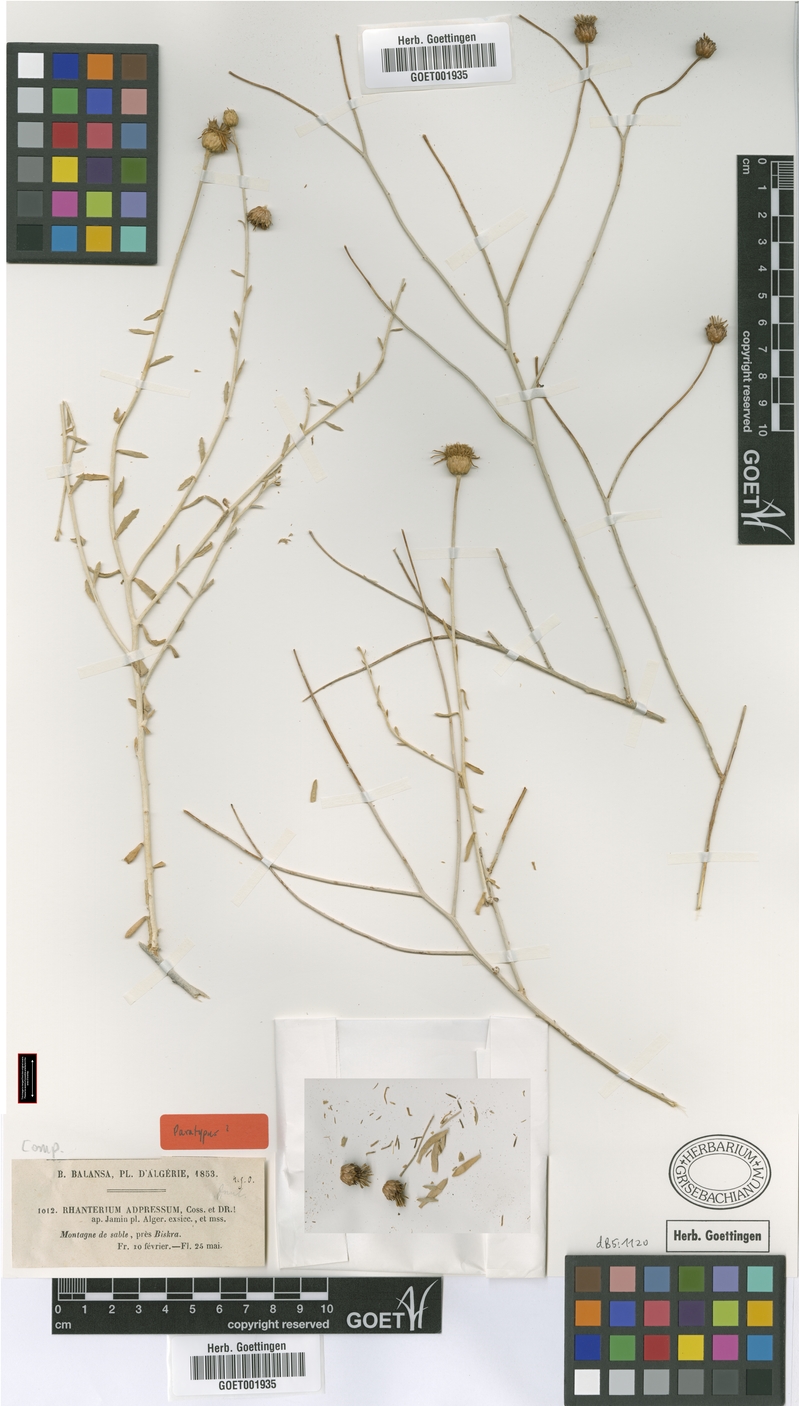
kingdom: Plantae
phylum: Tracheophyta
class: Magnoliopsida
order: Asterales
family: Asteraceae
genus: Rhanterium
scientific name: Rhanterium adpressum
